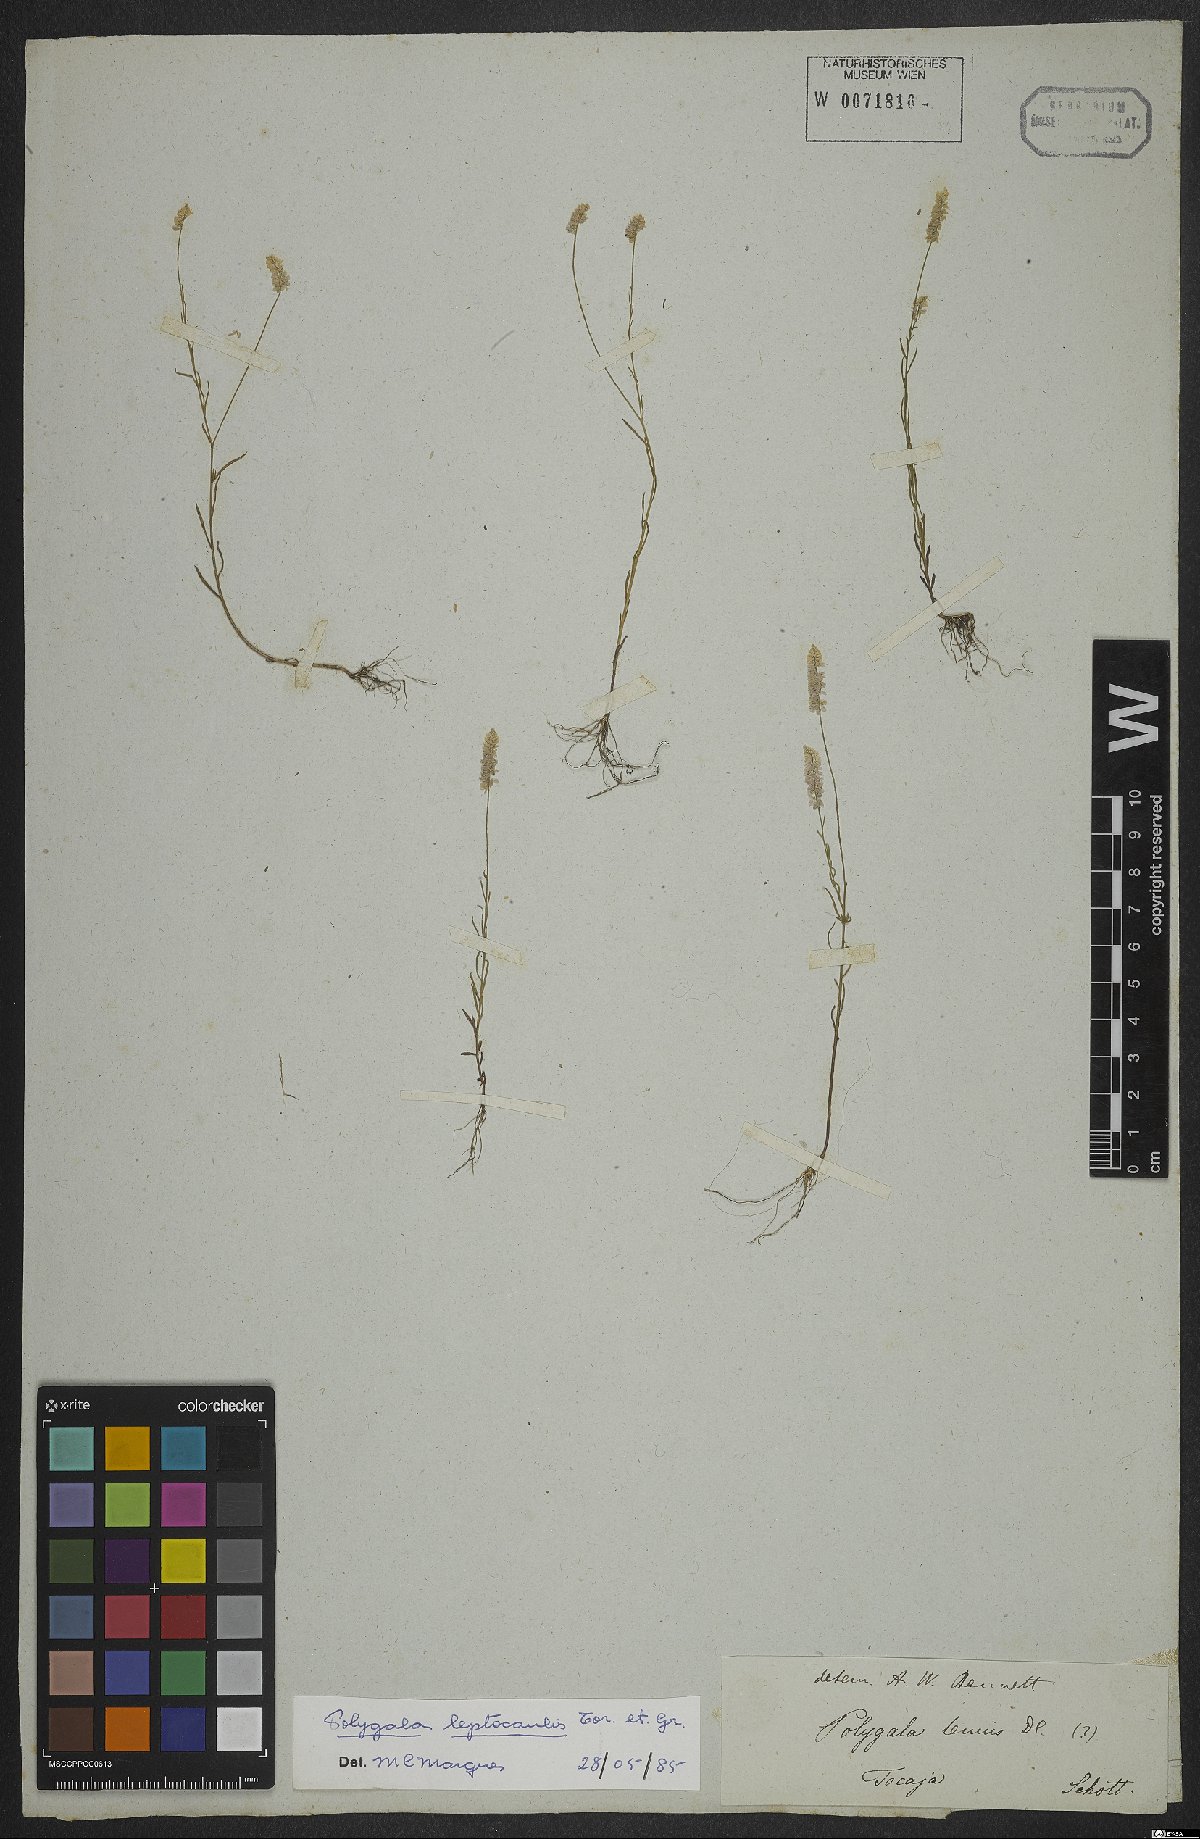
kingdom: Plantae
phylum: Tracheophyta
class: Magnoliopsida
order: Fabales
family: Polygalaceae
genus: Polygala
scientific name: Polygala tenella
